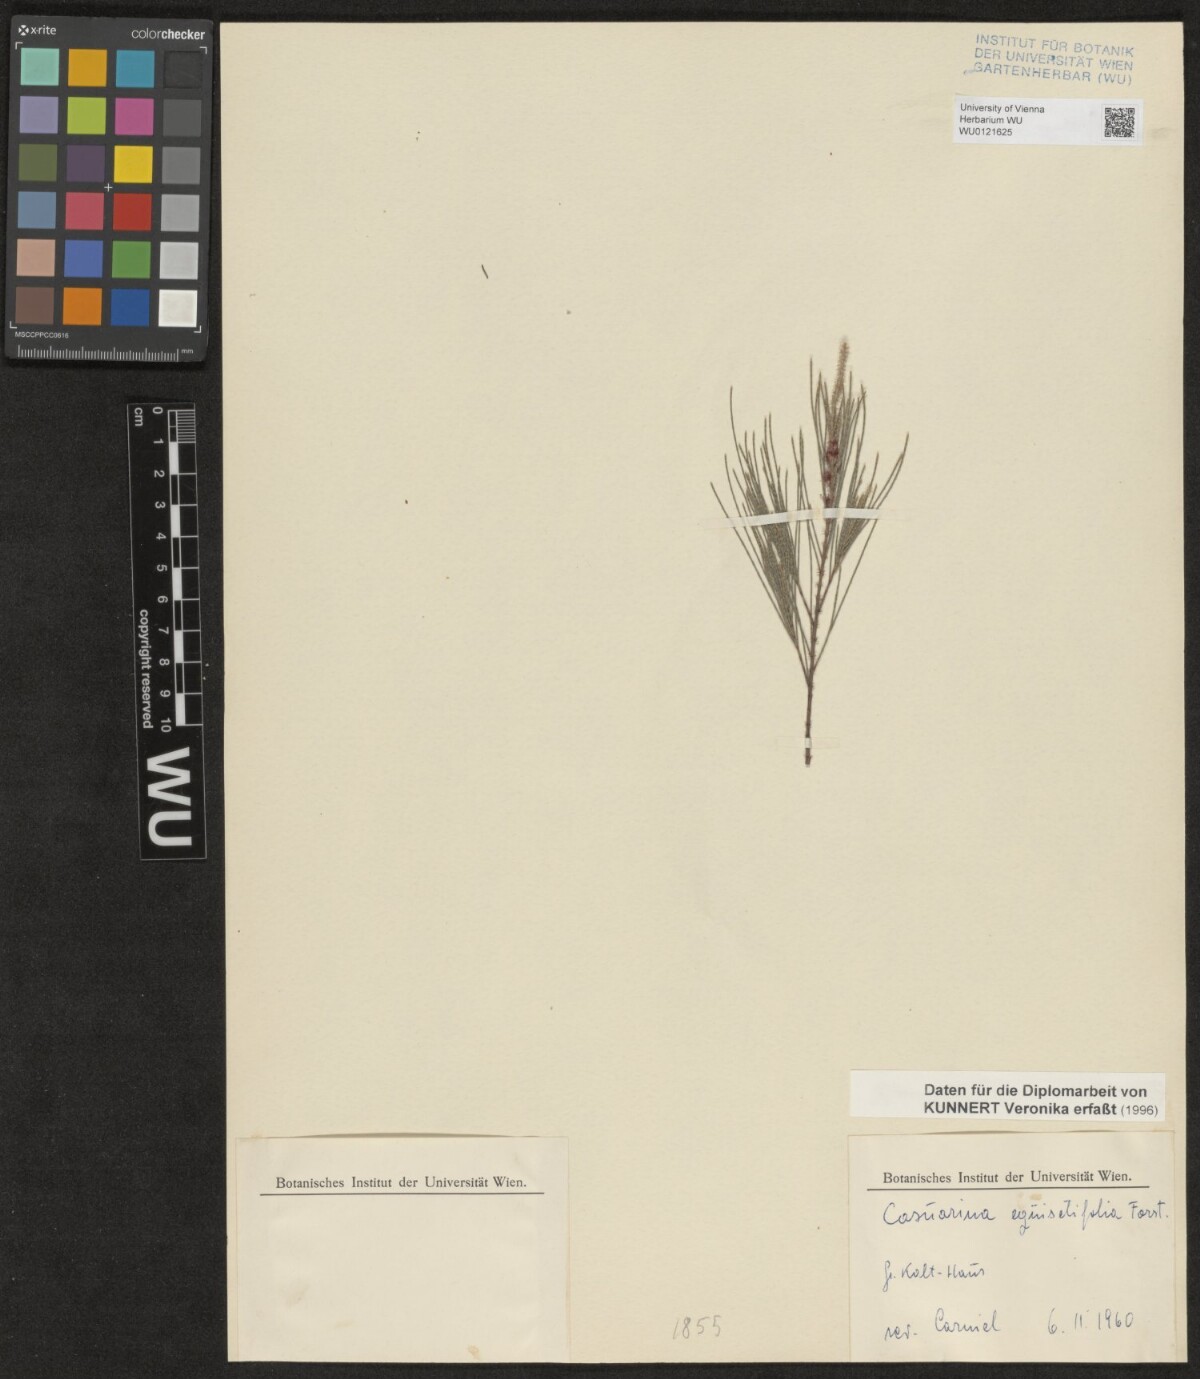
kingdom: Plantae
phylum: Tracheophyta
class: Magnoliopsida
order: Fagales
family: Casuarinaceae
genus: Casuarina
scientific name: Casuarina equisetifolia
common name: Beach sheoak
